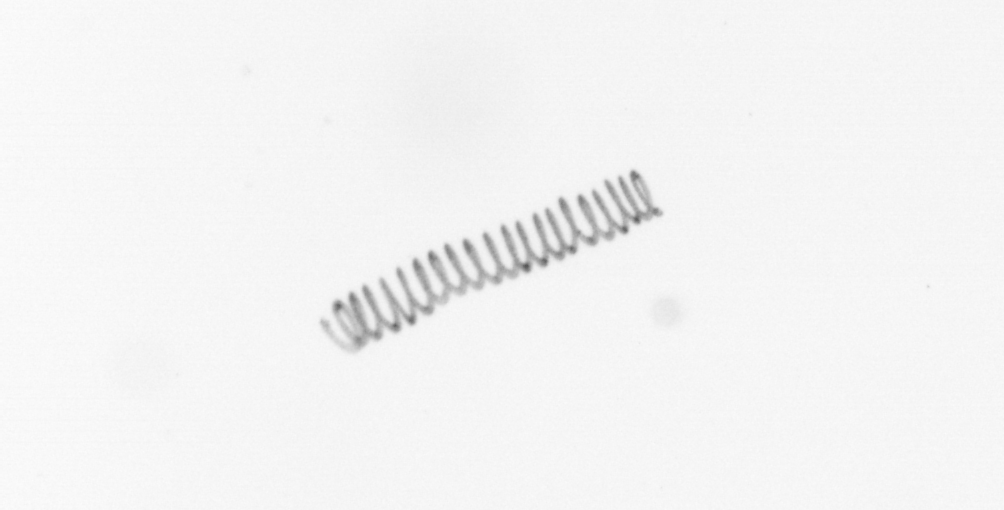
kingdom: Chromista
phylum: Ochrophyta
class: Bacillariophyceae
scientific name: Bacillariophyceae
